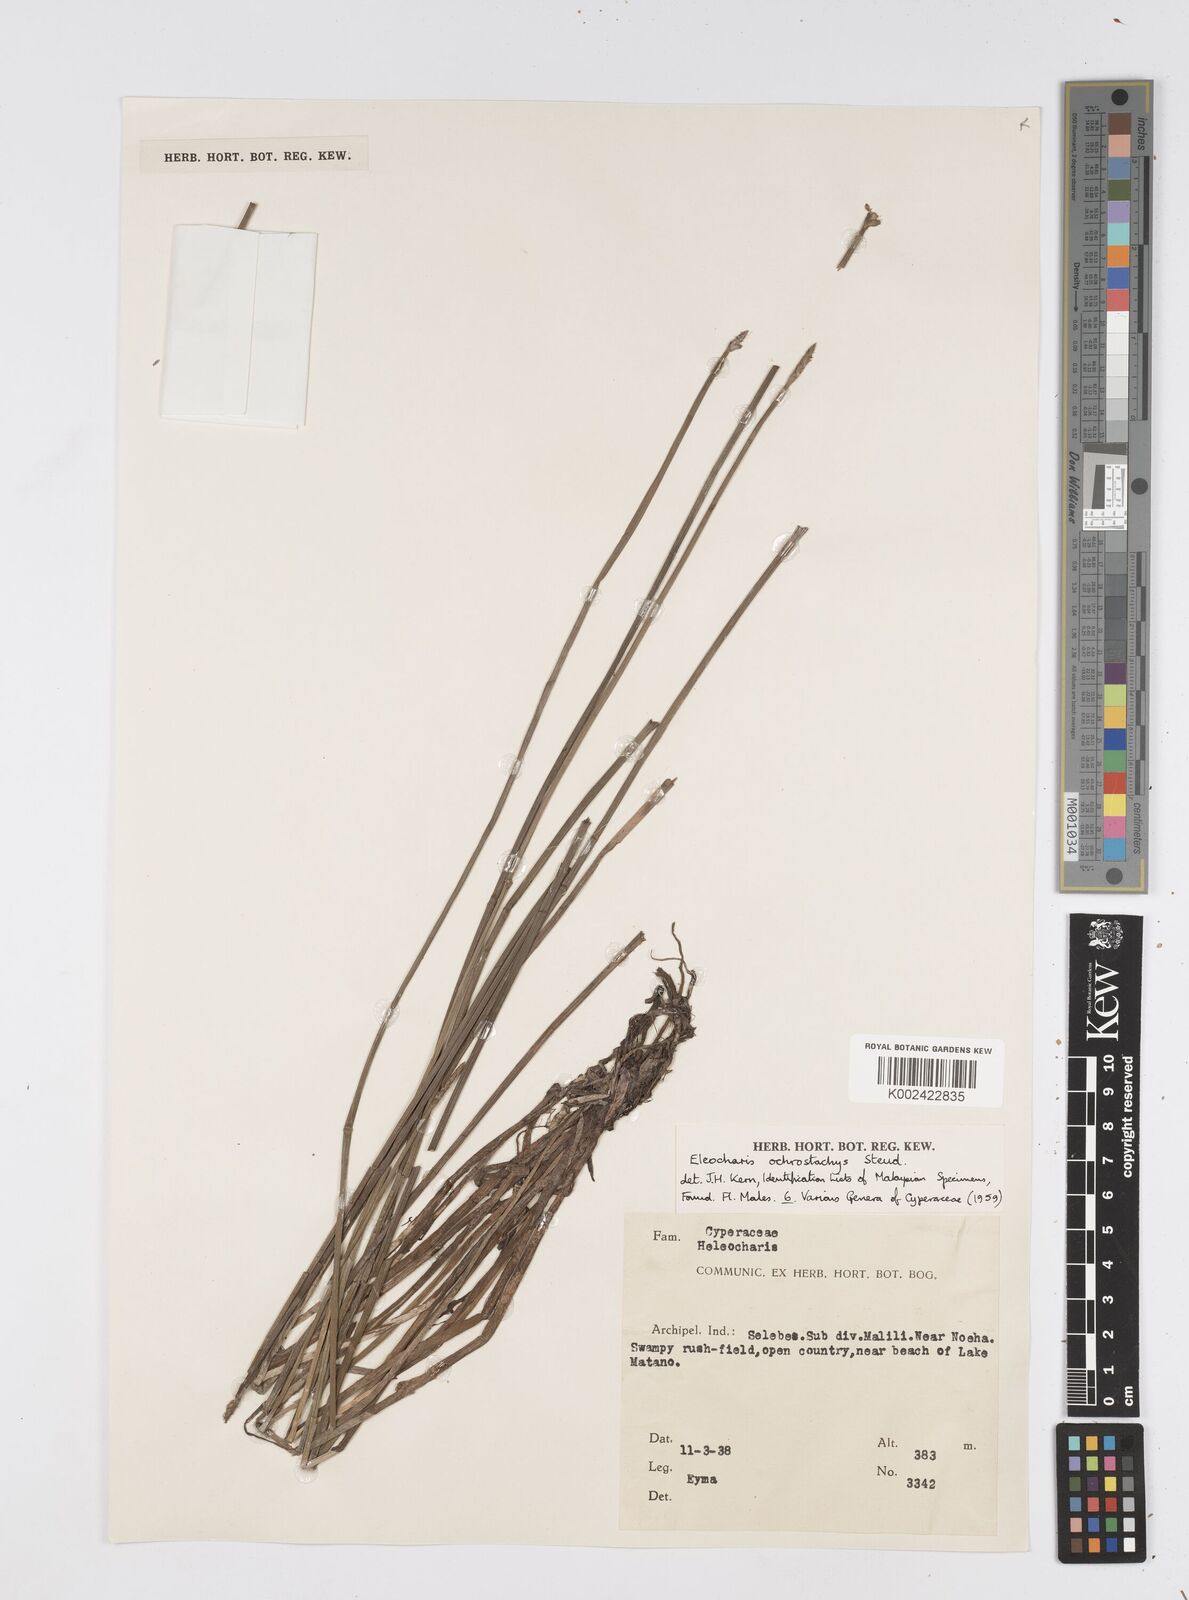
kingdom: Plantae
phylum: Tracheophyta
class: Liliopsida
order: Poales
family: Cyperaceae
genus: Eleocharis
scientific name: Eleocharis ochrostachys
